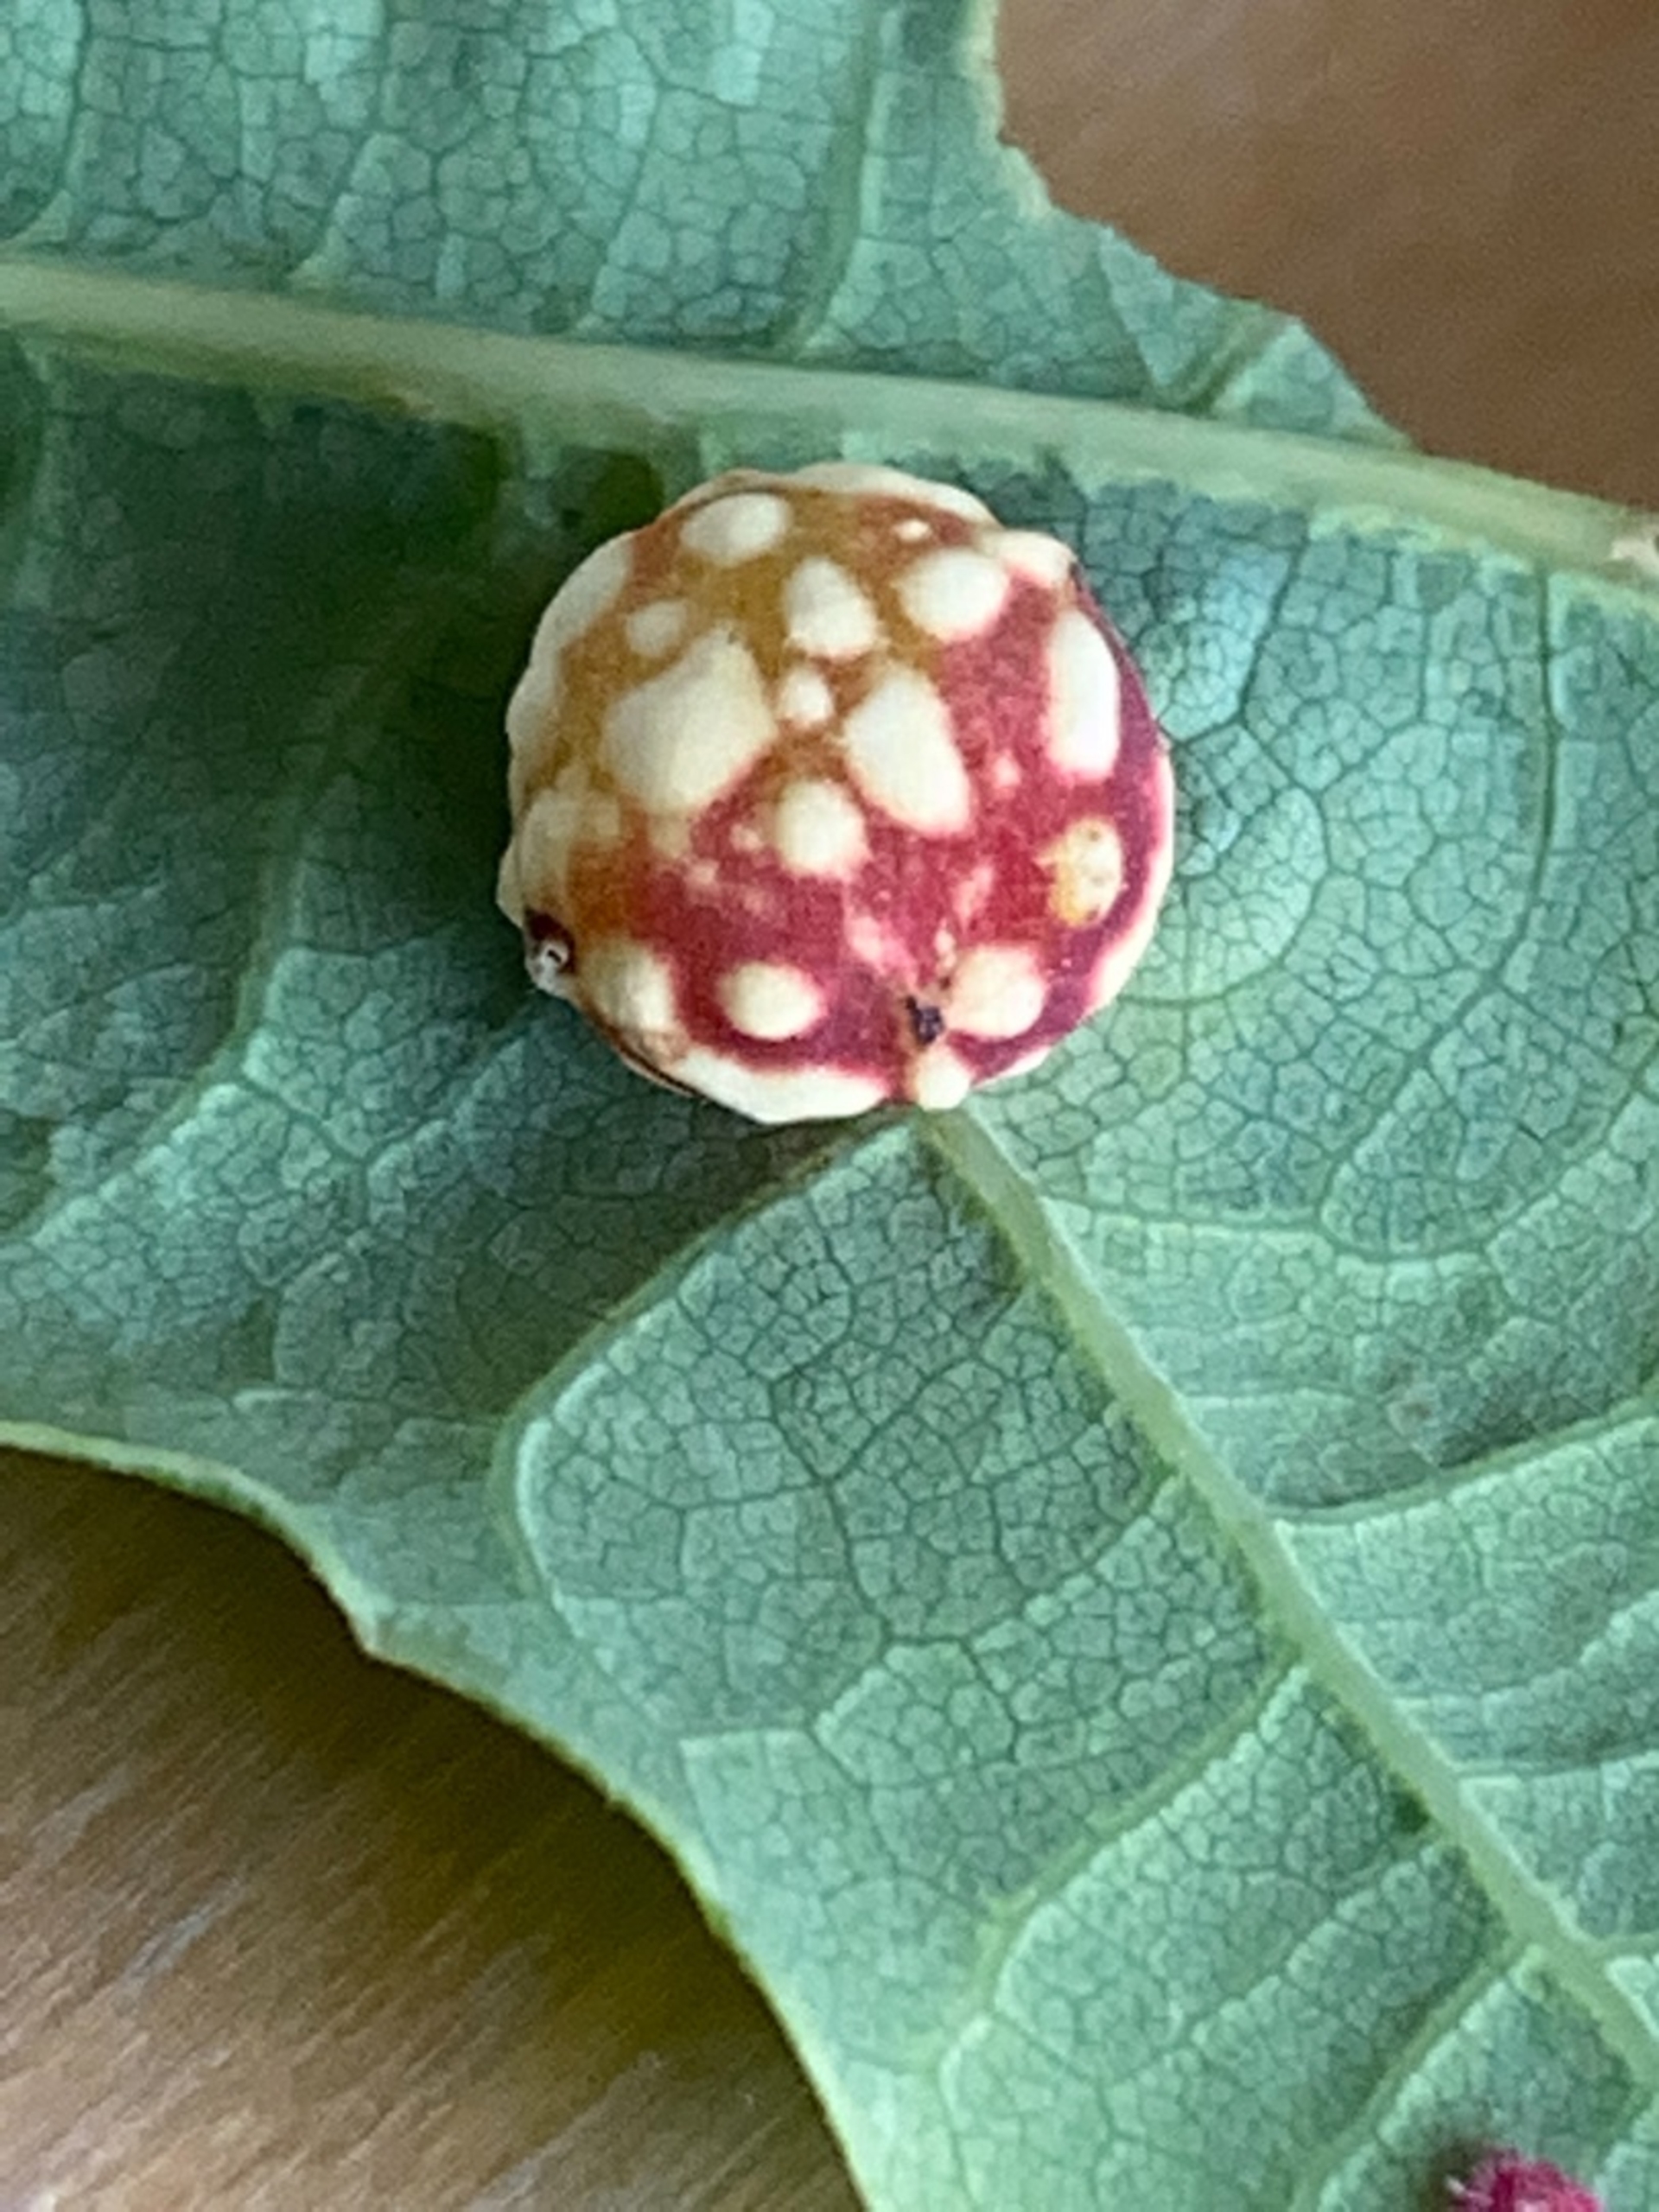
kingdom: Animalia
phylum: Arthropoda
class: Insecta
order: Hymenoptera
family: Cynipidae
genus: Cynips
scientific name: Cynips longiventris
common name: Dannebrogsgalhveps
